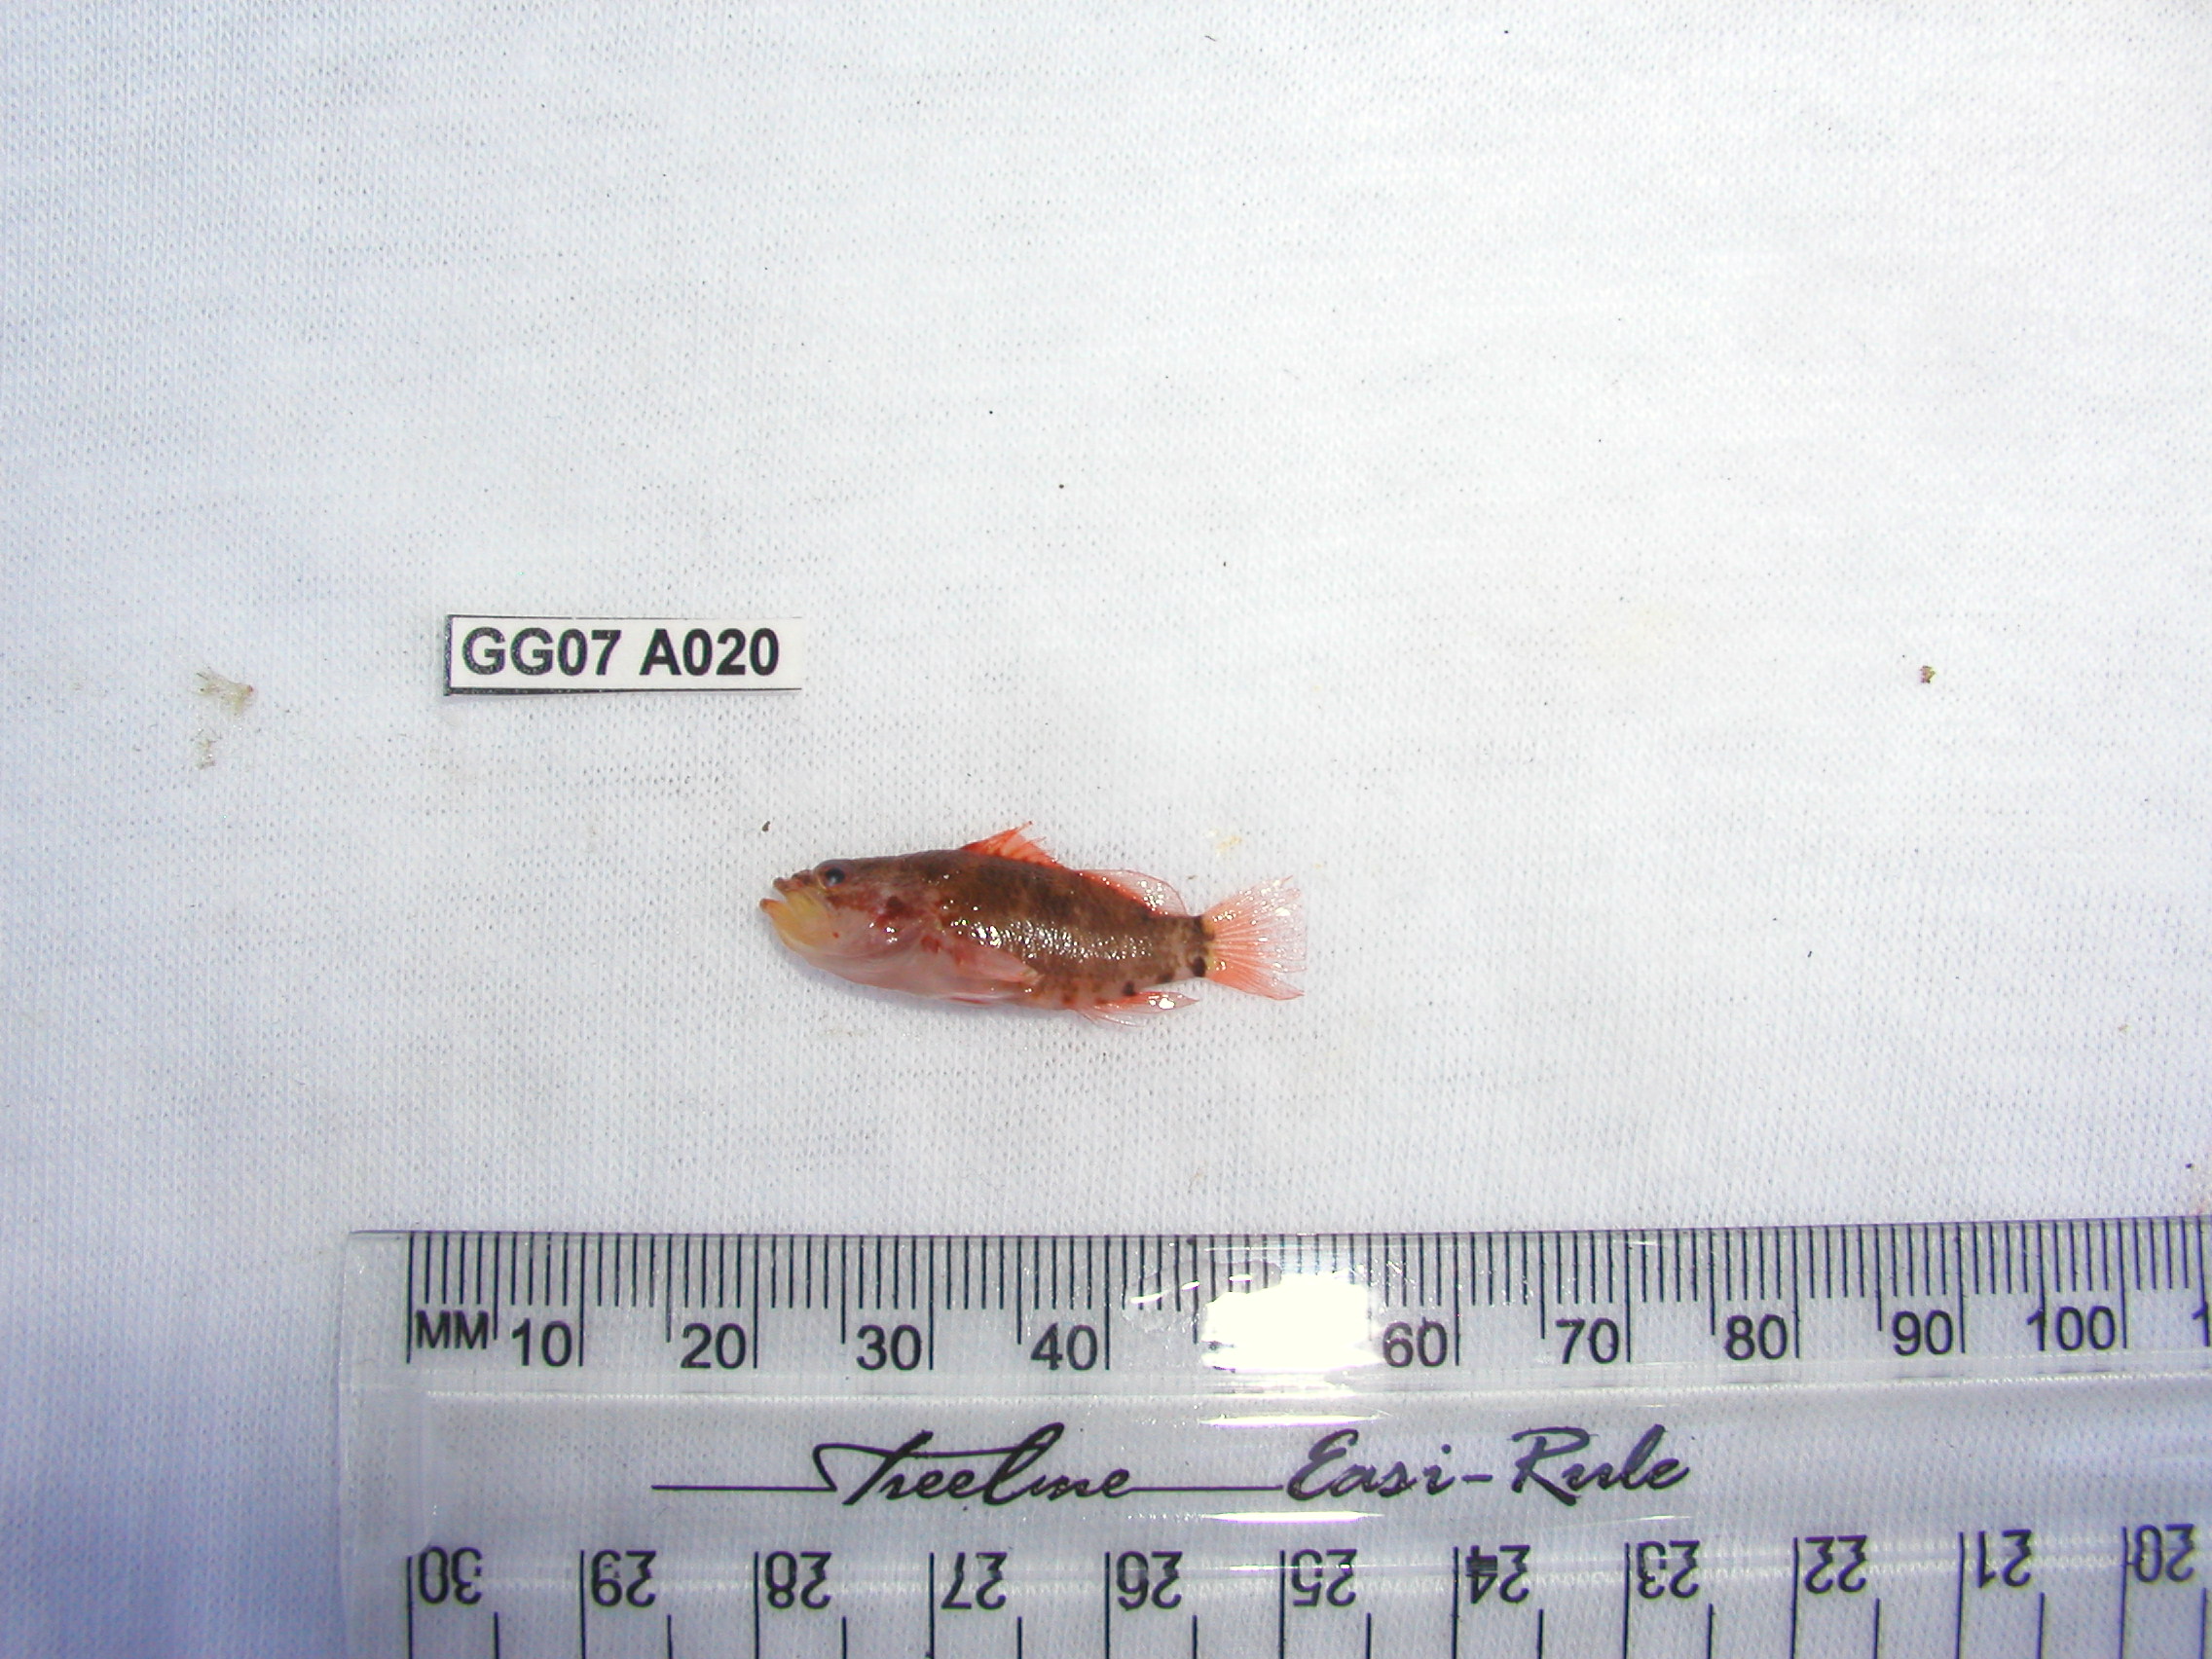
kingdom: Animalia
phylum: Chordata
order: Perciformes
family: Serranidae
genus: Plectranthias
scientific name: Plectranthias longimanus
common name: Longfin perchlet
